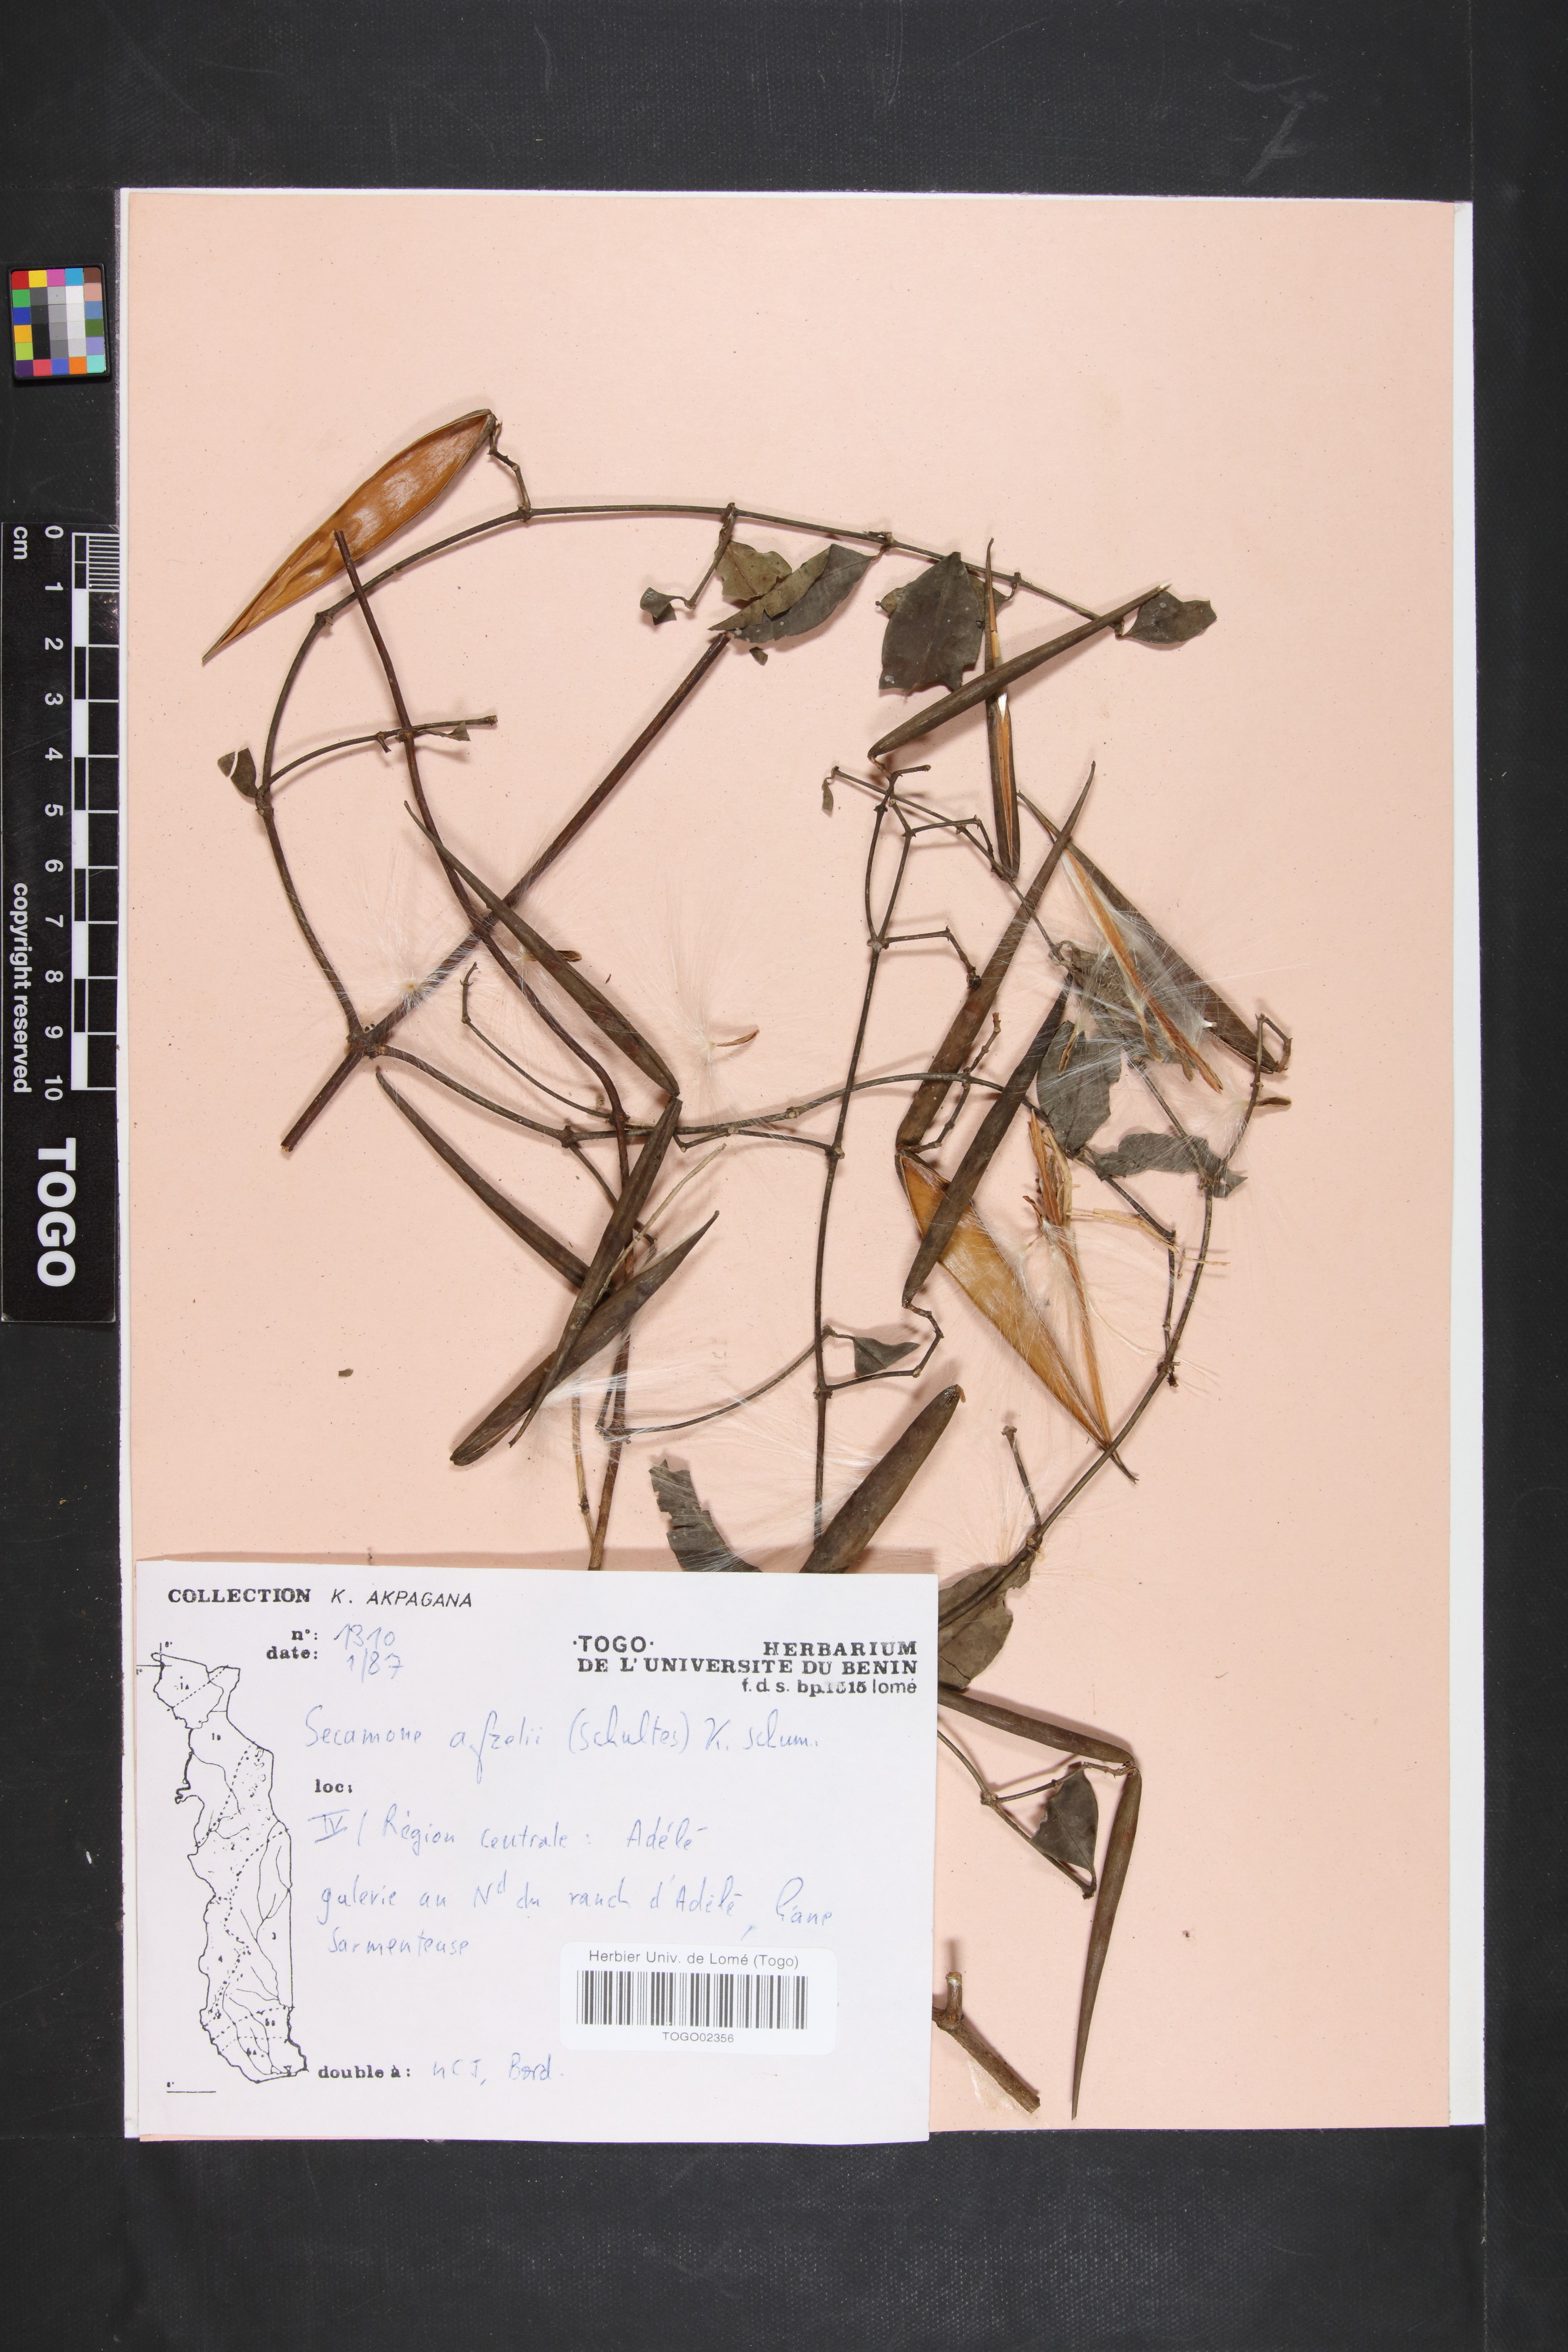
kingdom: Plantae
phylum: Tracheophyta
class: Magnoliopsida
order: Gentianales
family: Apocynaceae
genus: Secamone
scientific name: Secamone afzelii
